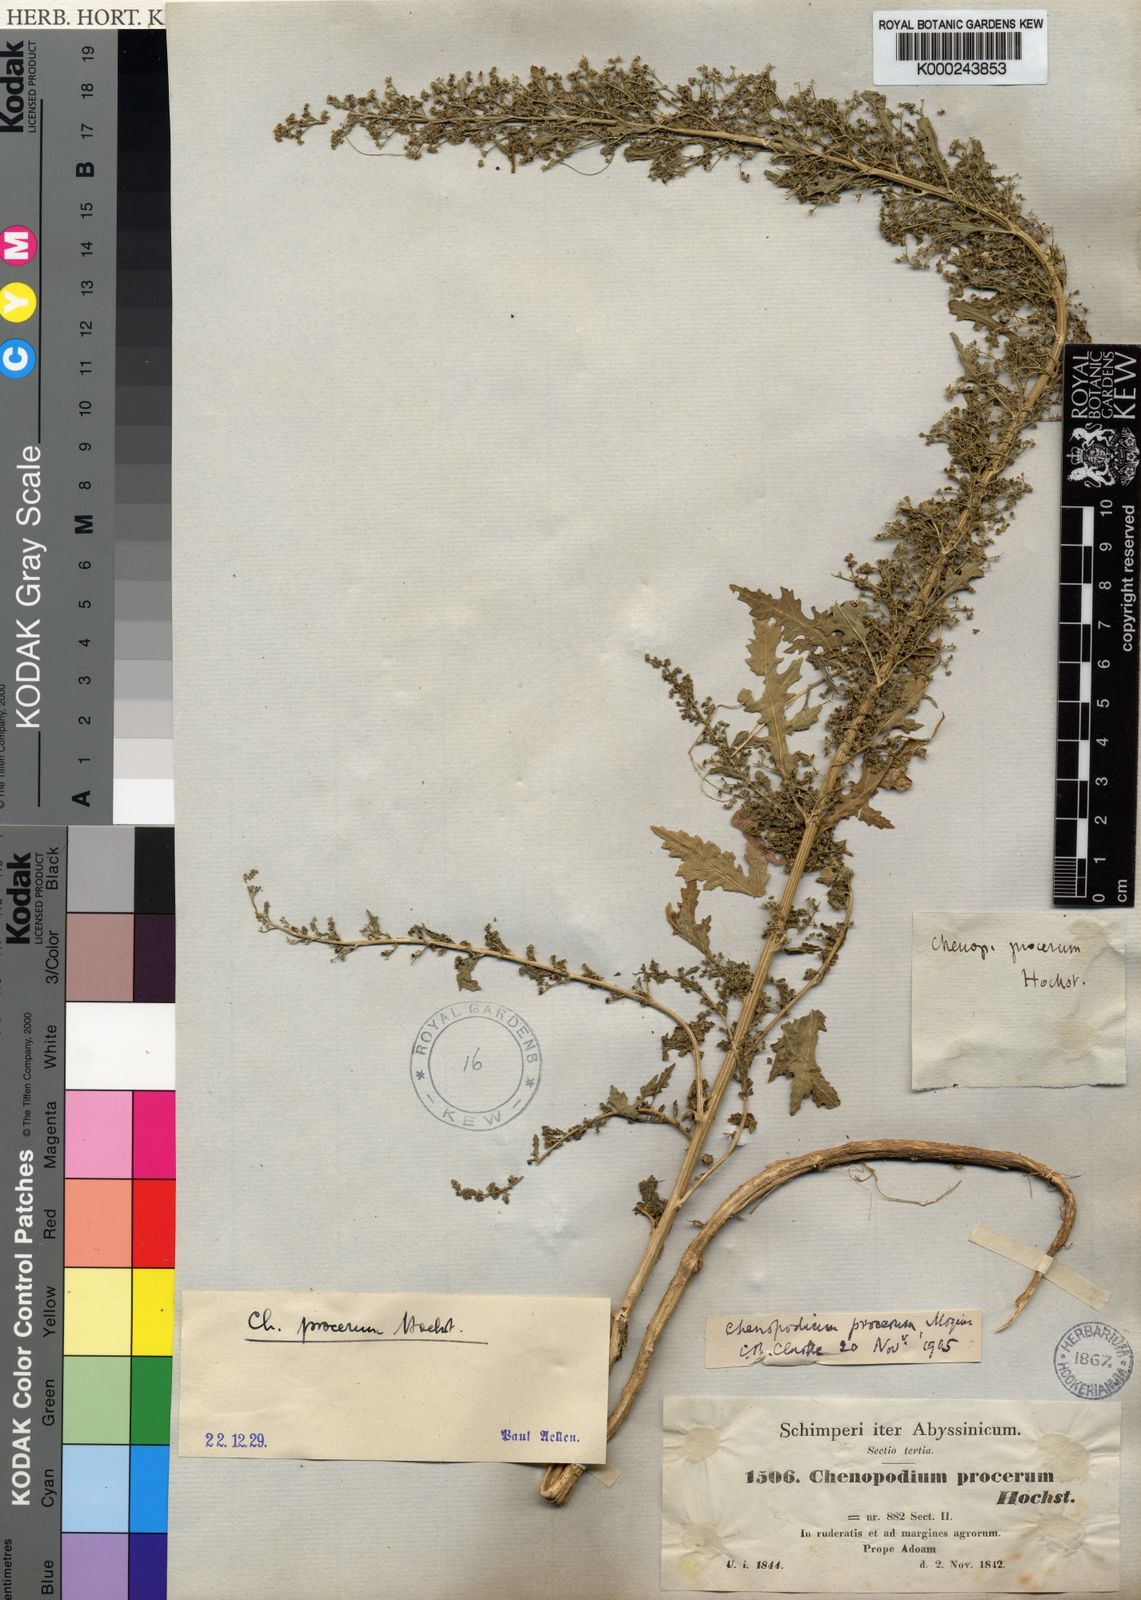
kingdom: Plantae
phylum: Tracheophyta
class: Magnoliopsida
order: Caryophyllales
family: Amaranthaceae
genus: Dysphania
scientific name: Dysphania procera
